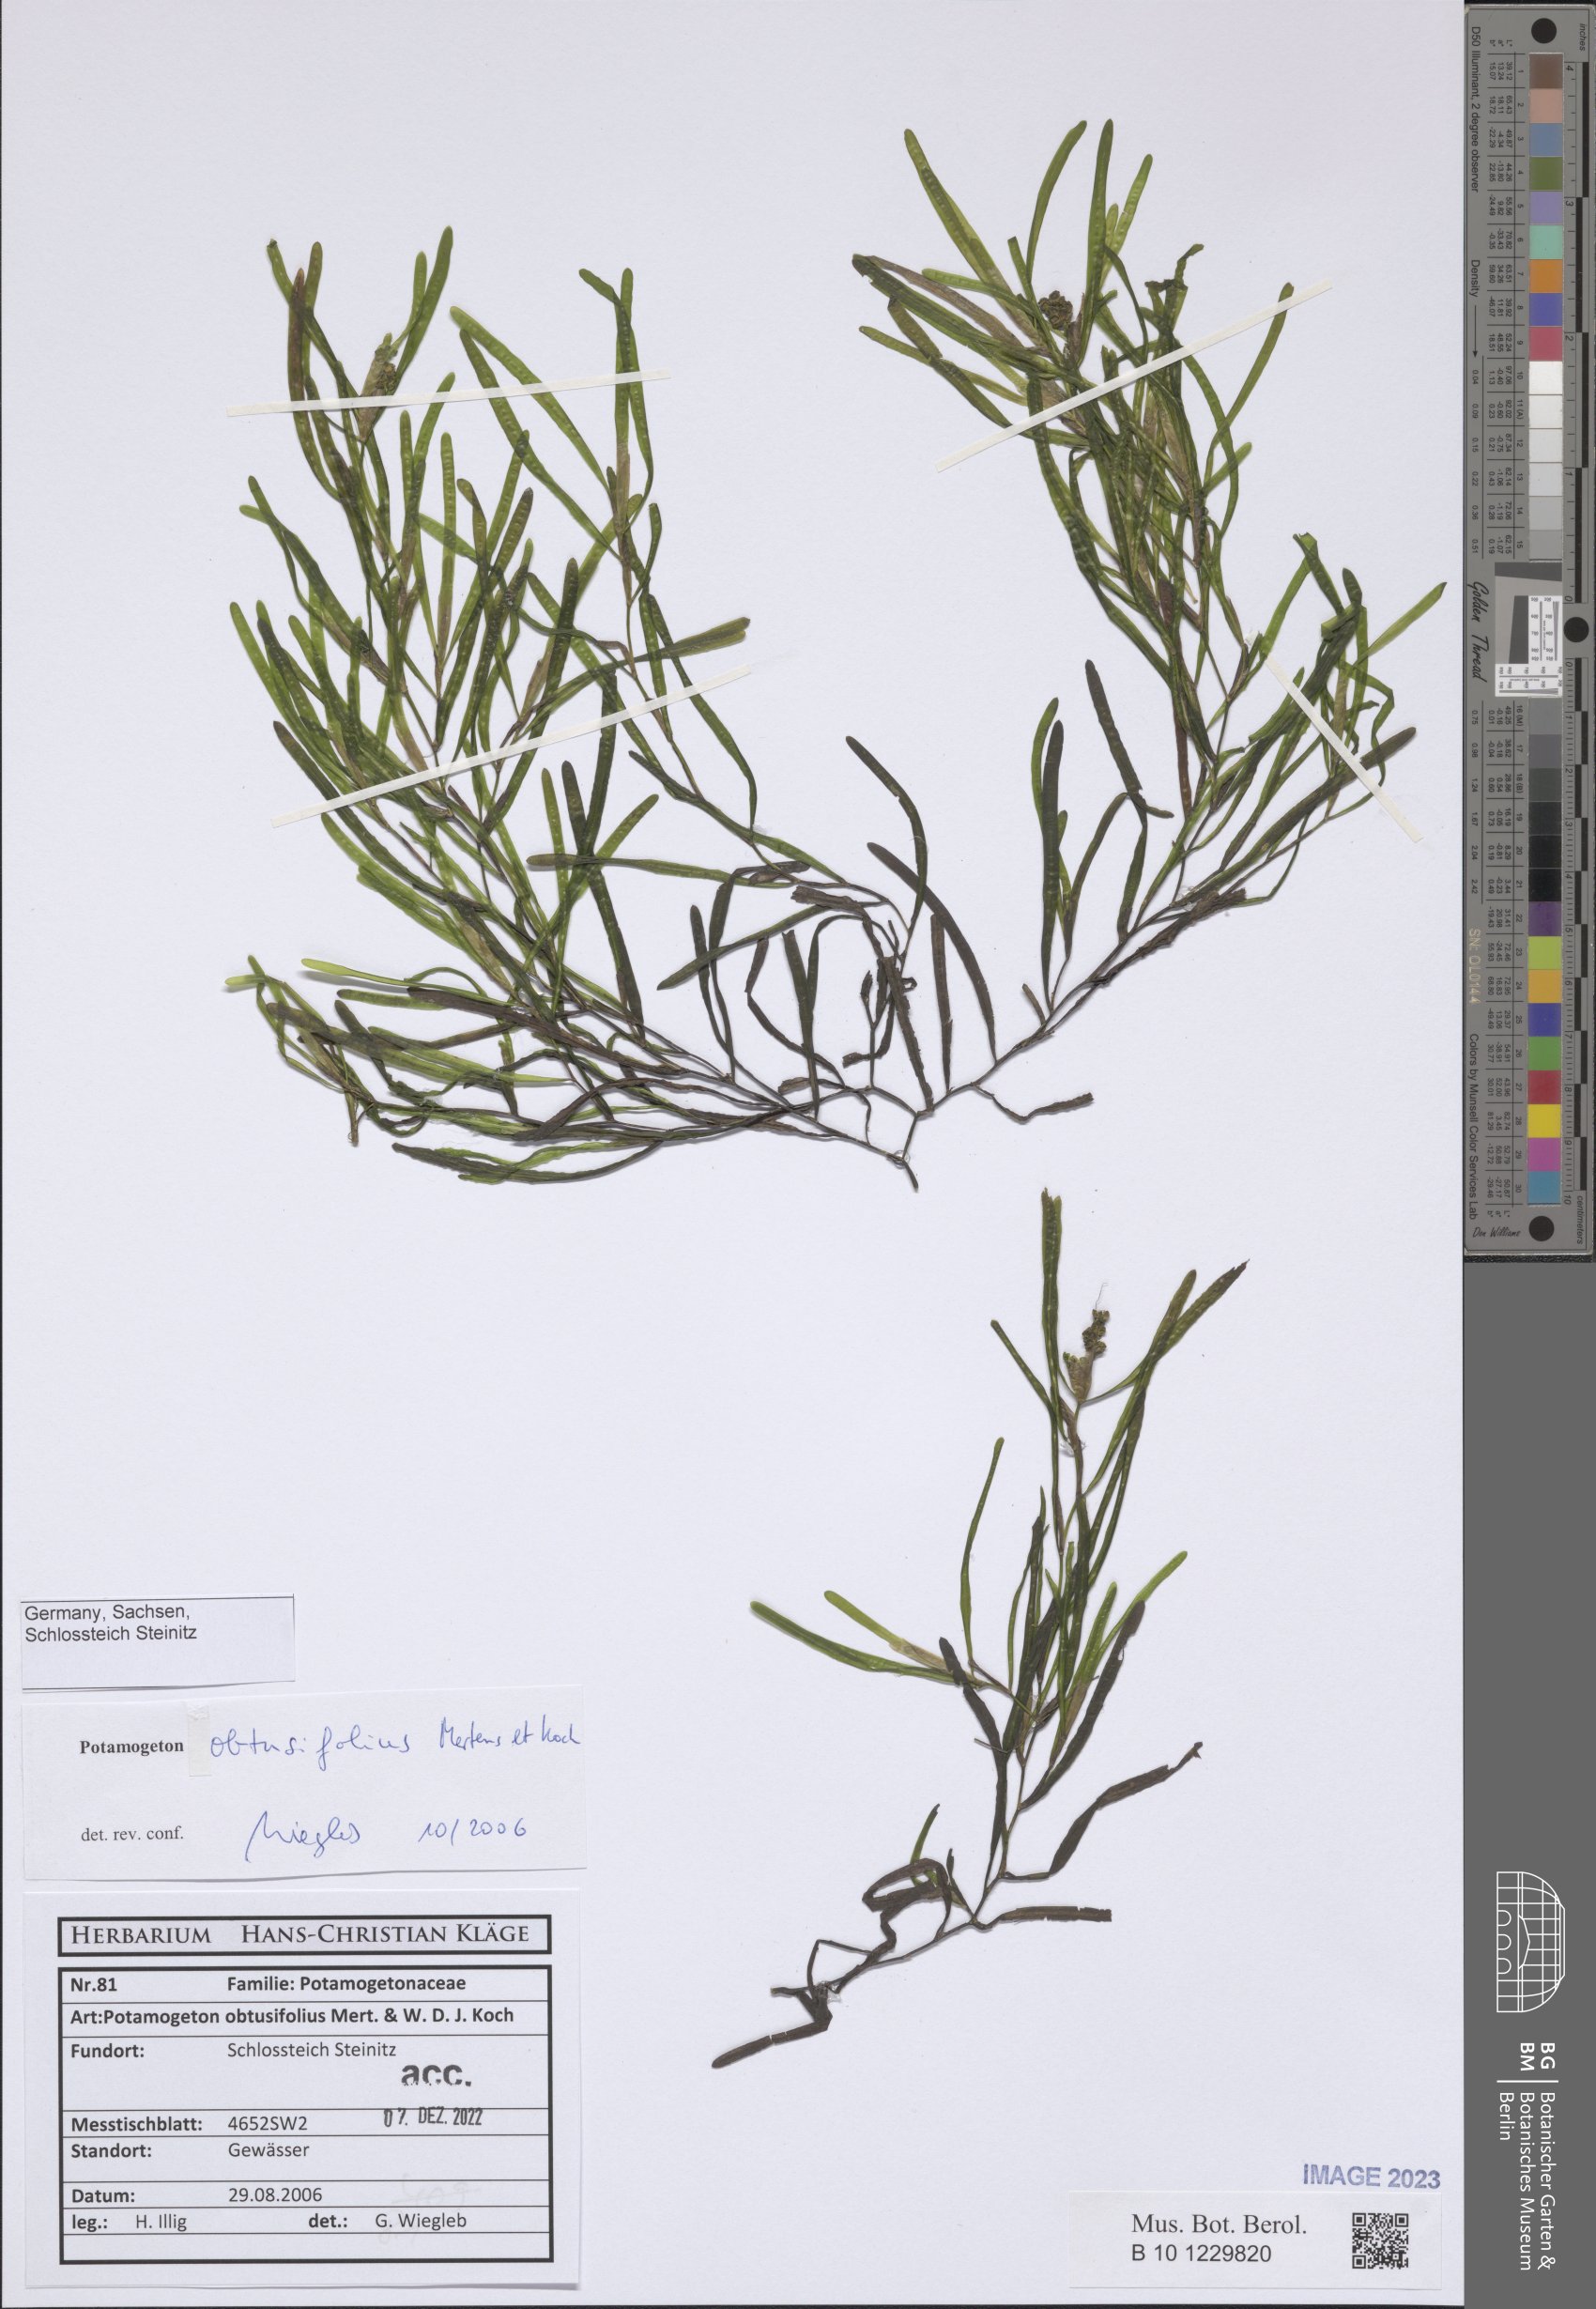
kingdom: Plantae
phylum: Tracheophyta
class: Liliopsida
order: Alismatales
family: Potamogetonaceae
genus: Potamogeton
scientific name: Potamogeton obtusifolius
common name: Blunt-leaved pondweed
